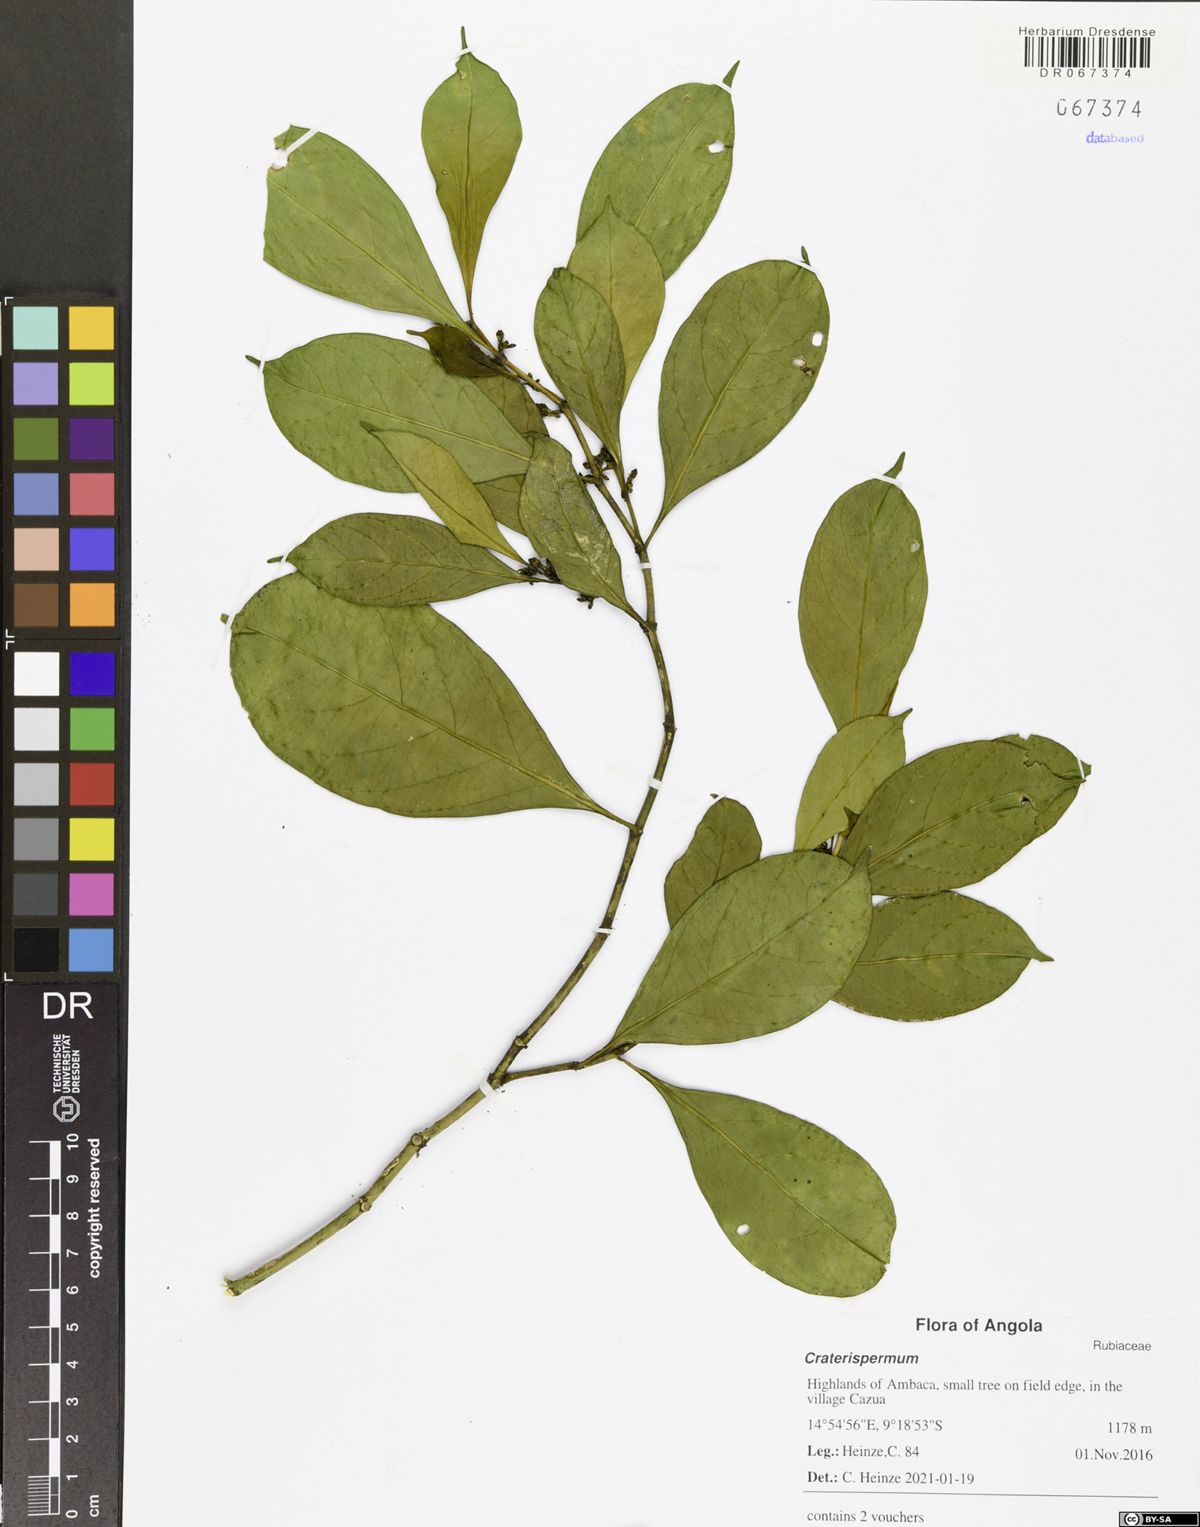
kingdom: Plantae
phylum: Tracheophyta
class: Magnoliopsida
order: Gentianales
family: Rubiaceae
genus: Craterispermum
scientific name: Craterispermum
